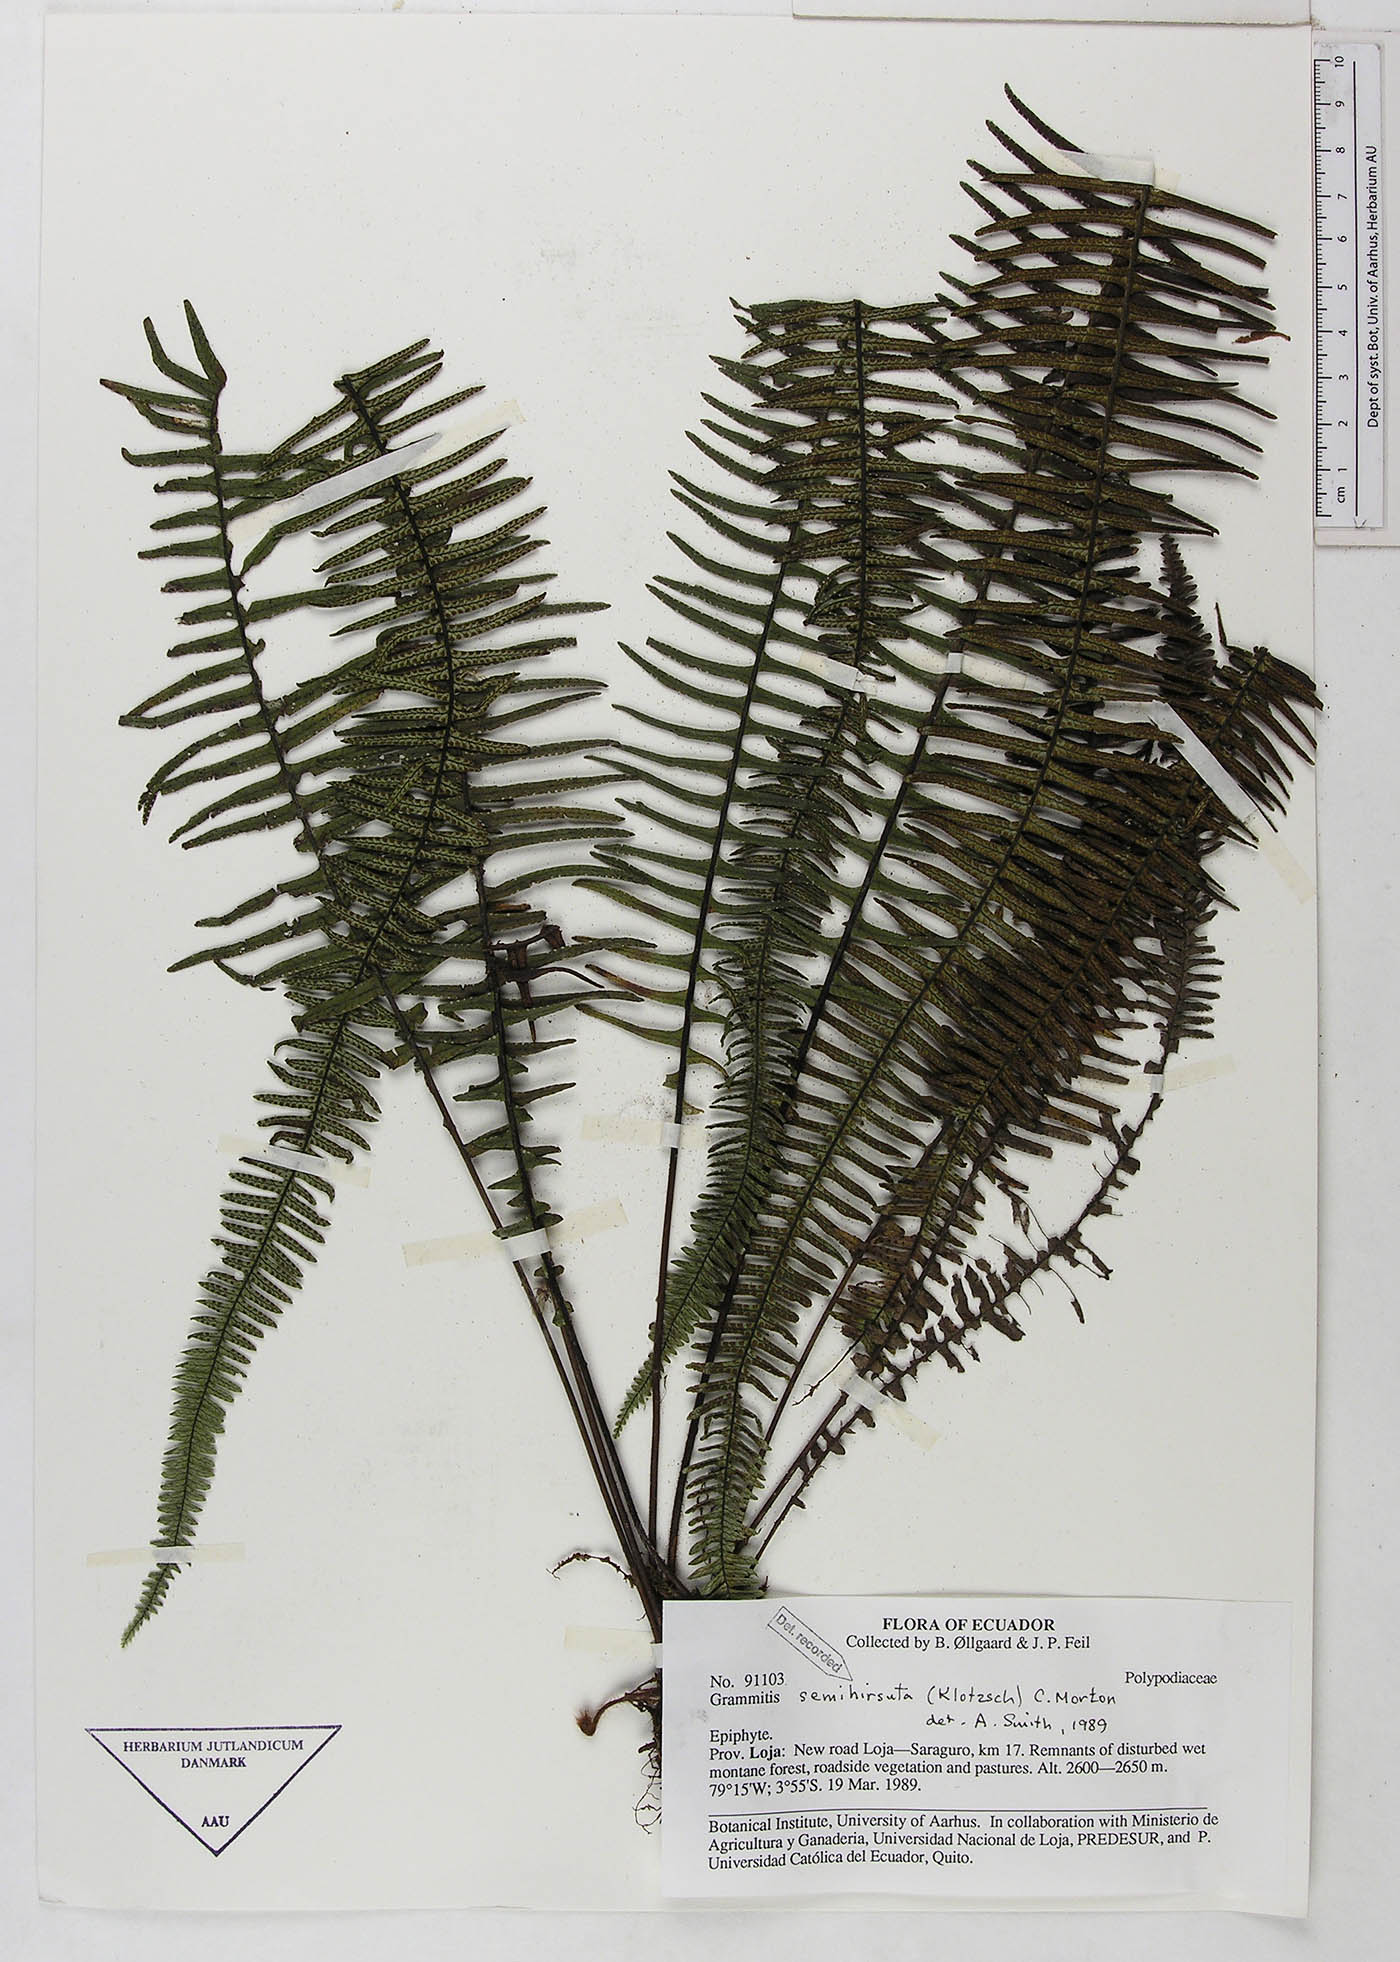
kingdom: Plantae
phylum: Tracheophyta
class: Polypodiopsida
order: Polypodiales
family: Polypodiaceae
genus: Mycopteris
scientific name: Mycopteris semihirsuta
